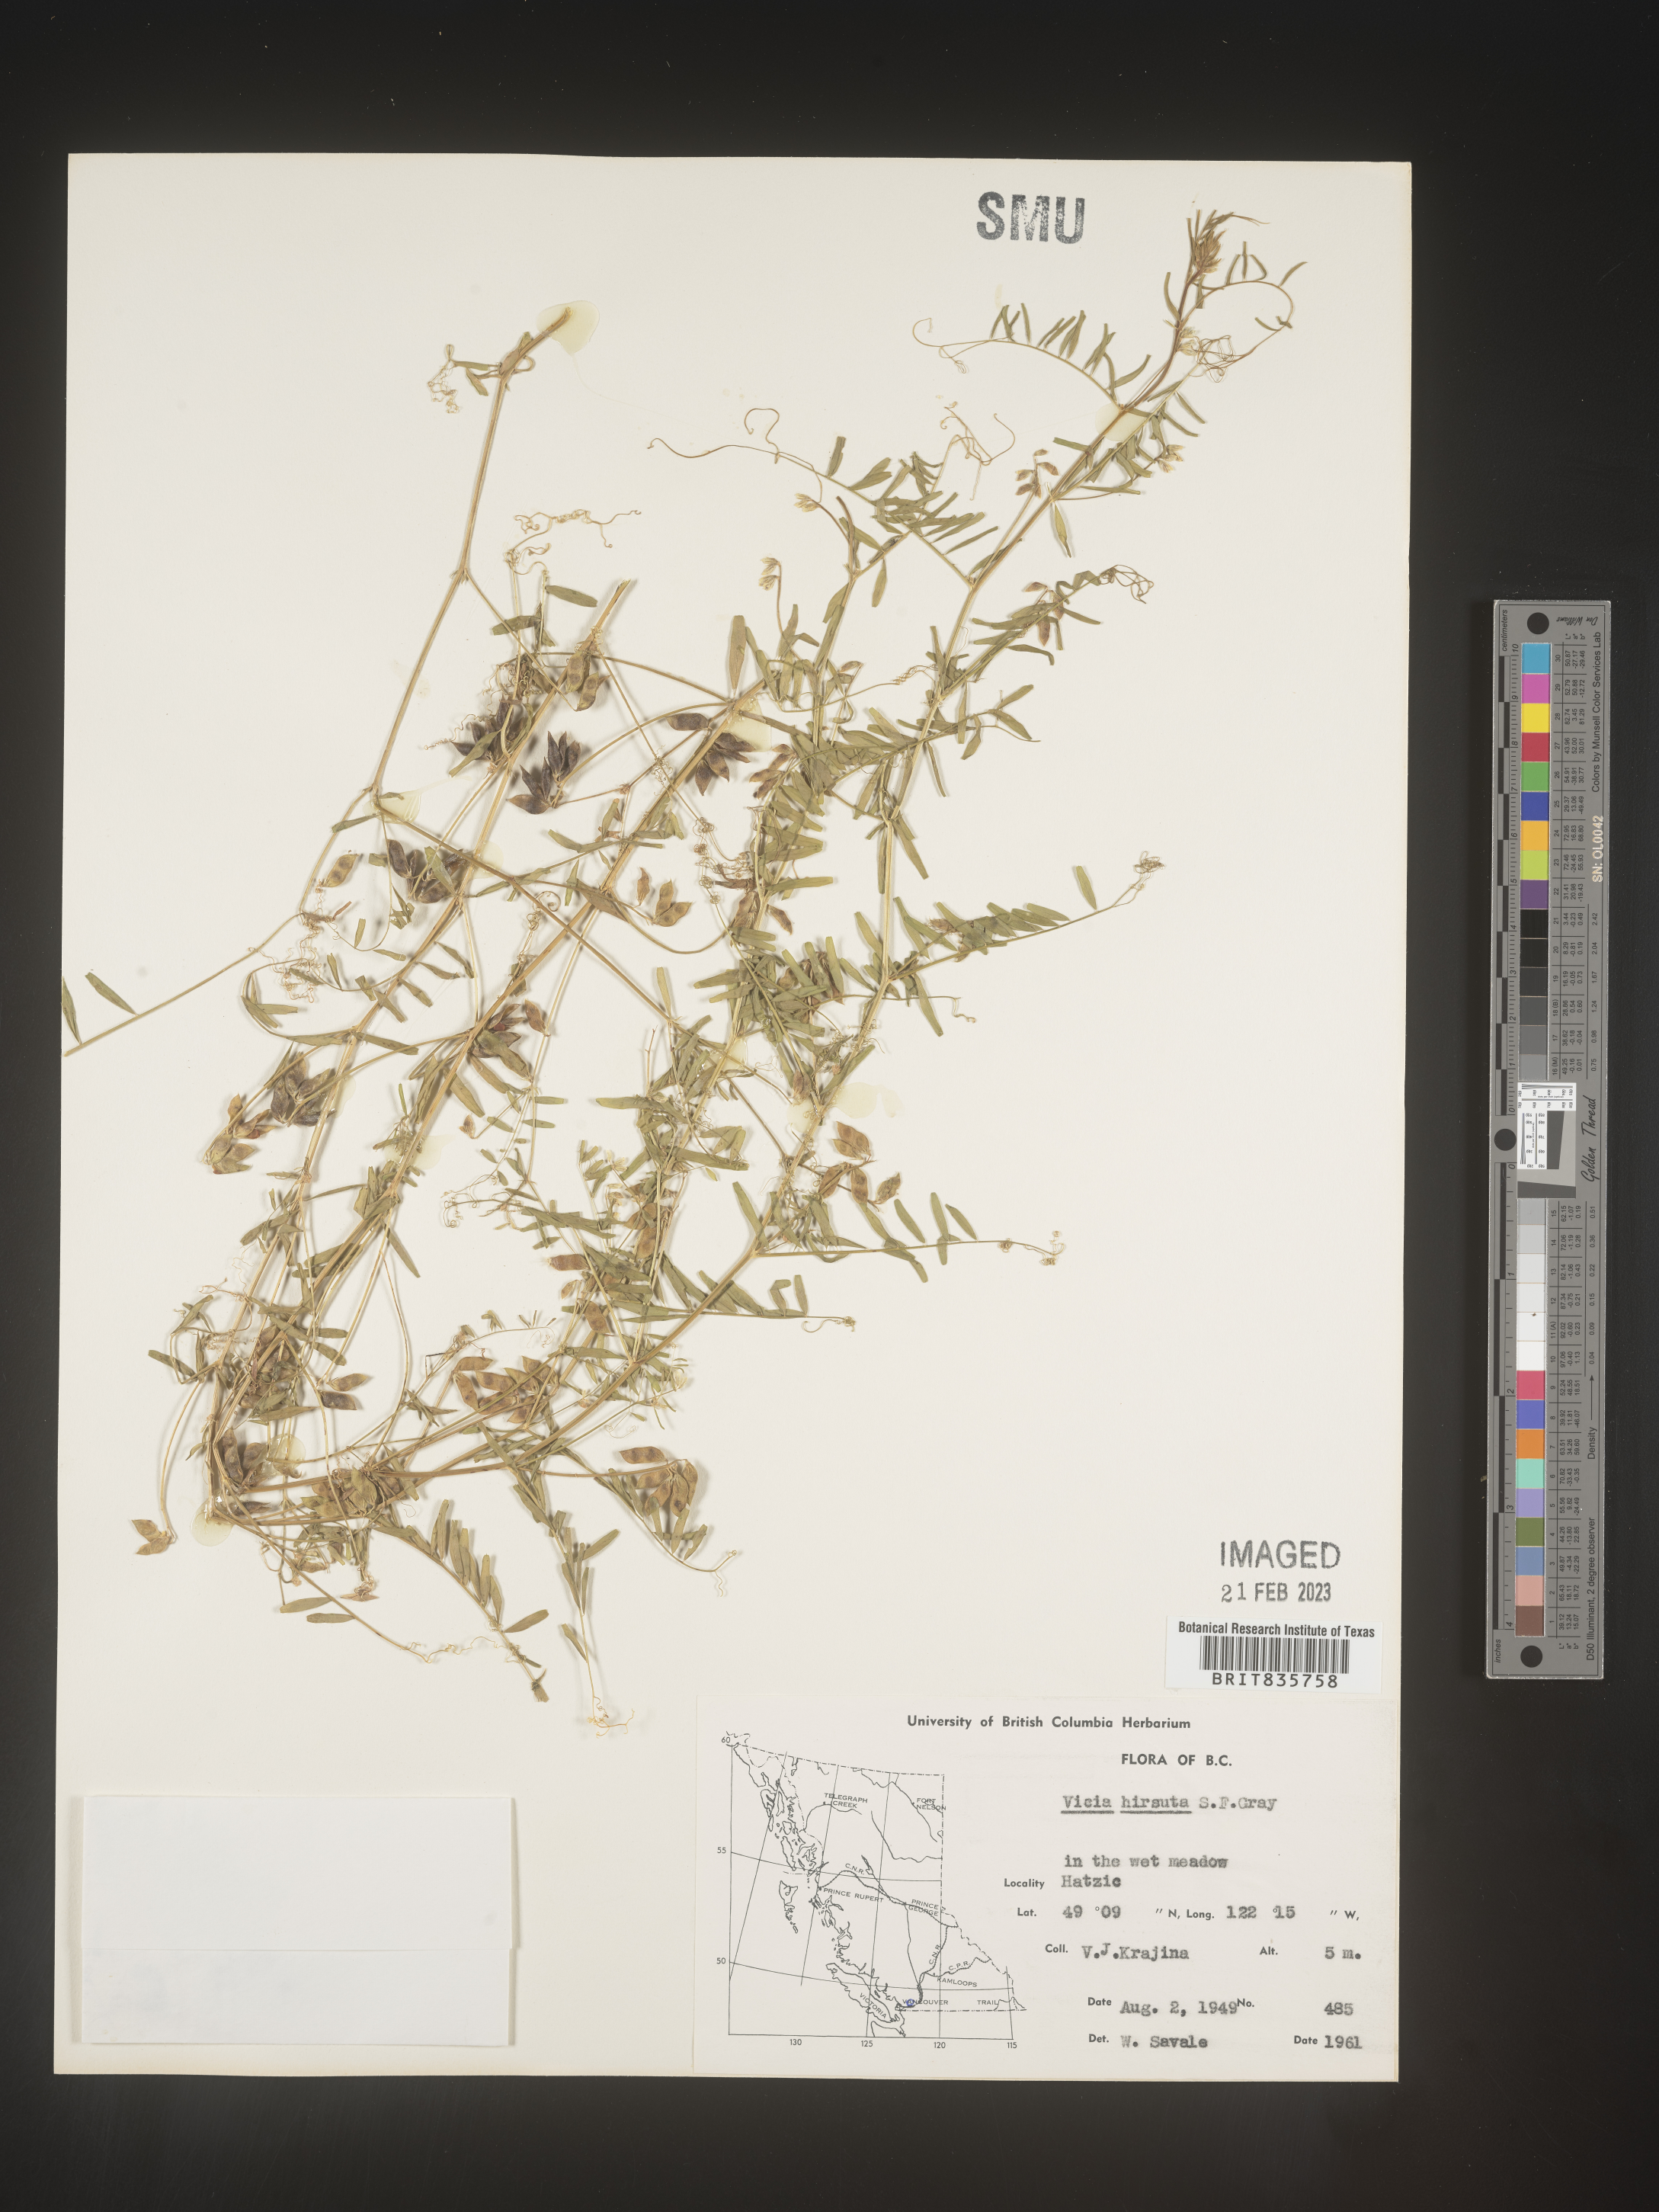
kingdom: Plantae
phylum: Tracheophyta
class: Magnoliopsida
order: Fabales
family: Fabaceae
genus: Vicia
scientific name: Vicia
